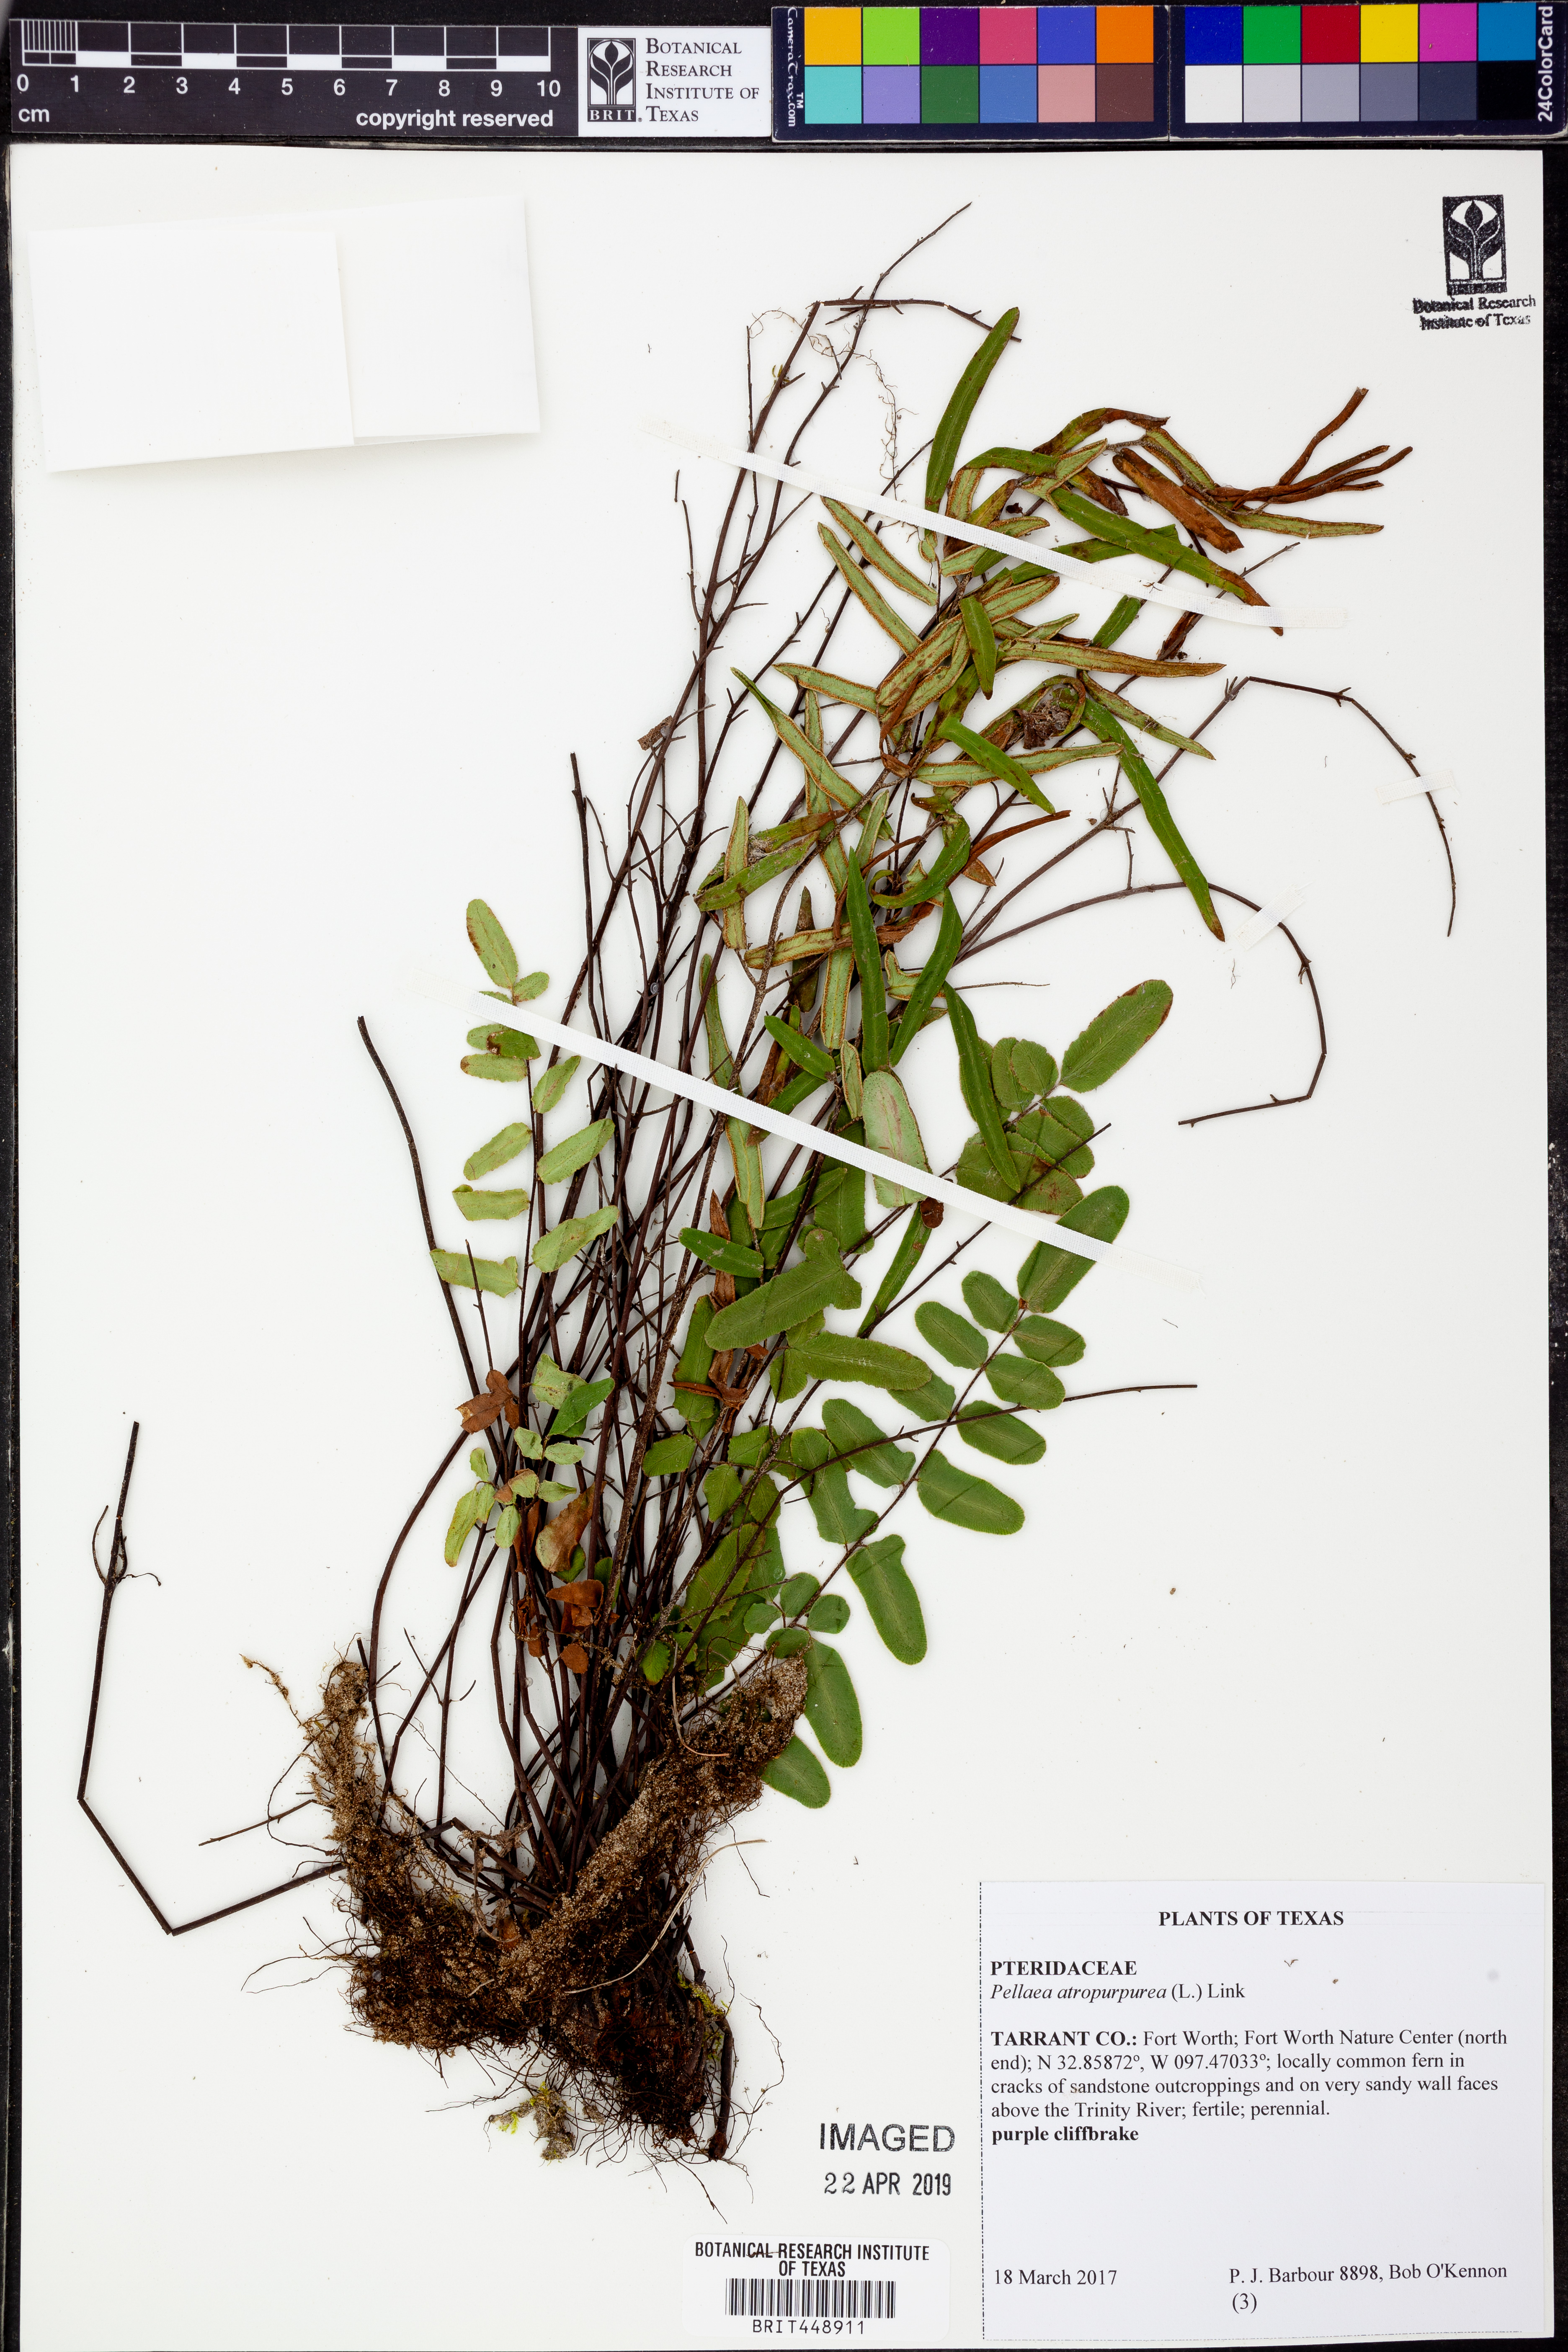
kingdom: Plantae
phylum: Tracheophyta
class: Polypodiopsida
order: Polypodiales
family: Pteridaceae
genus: Pellaea
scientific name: Pellaea atropurpurea
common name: Hairy cliffbrake
